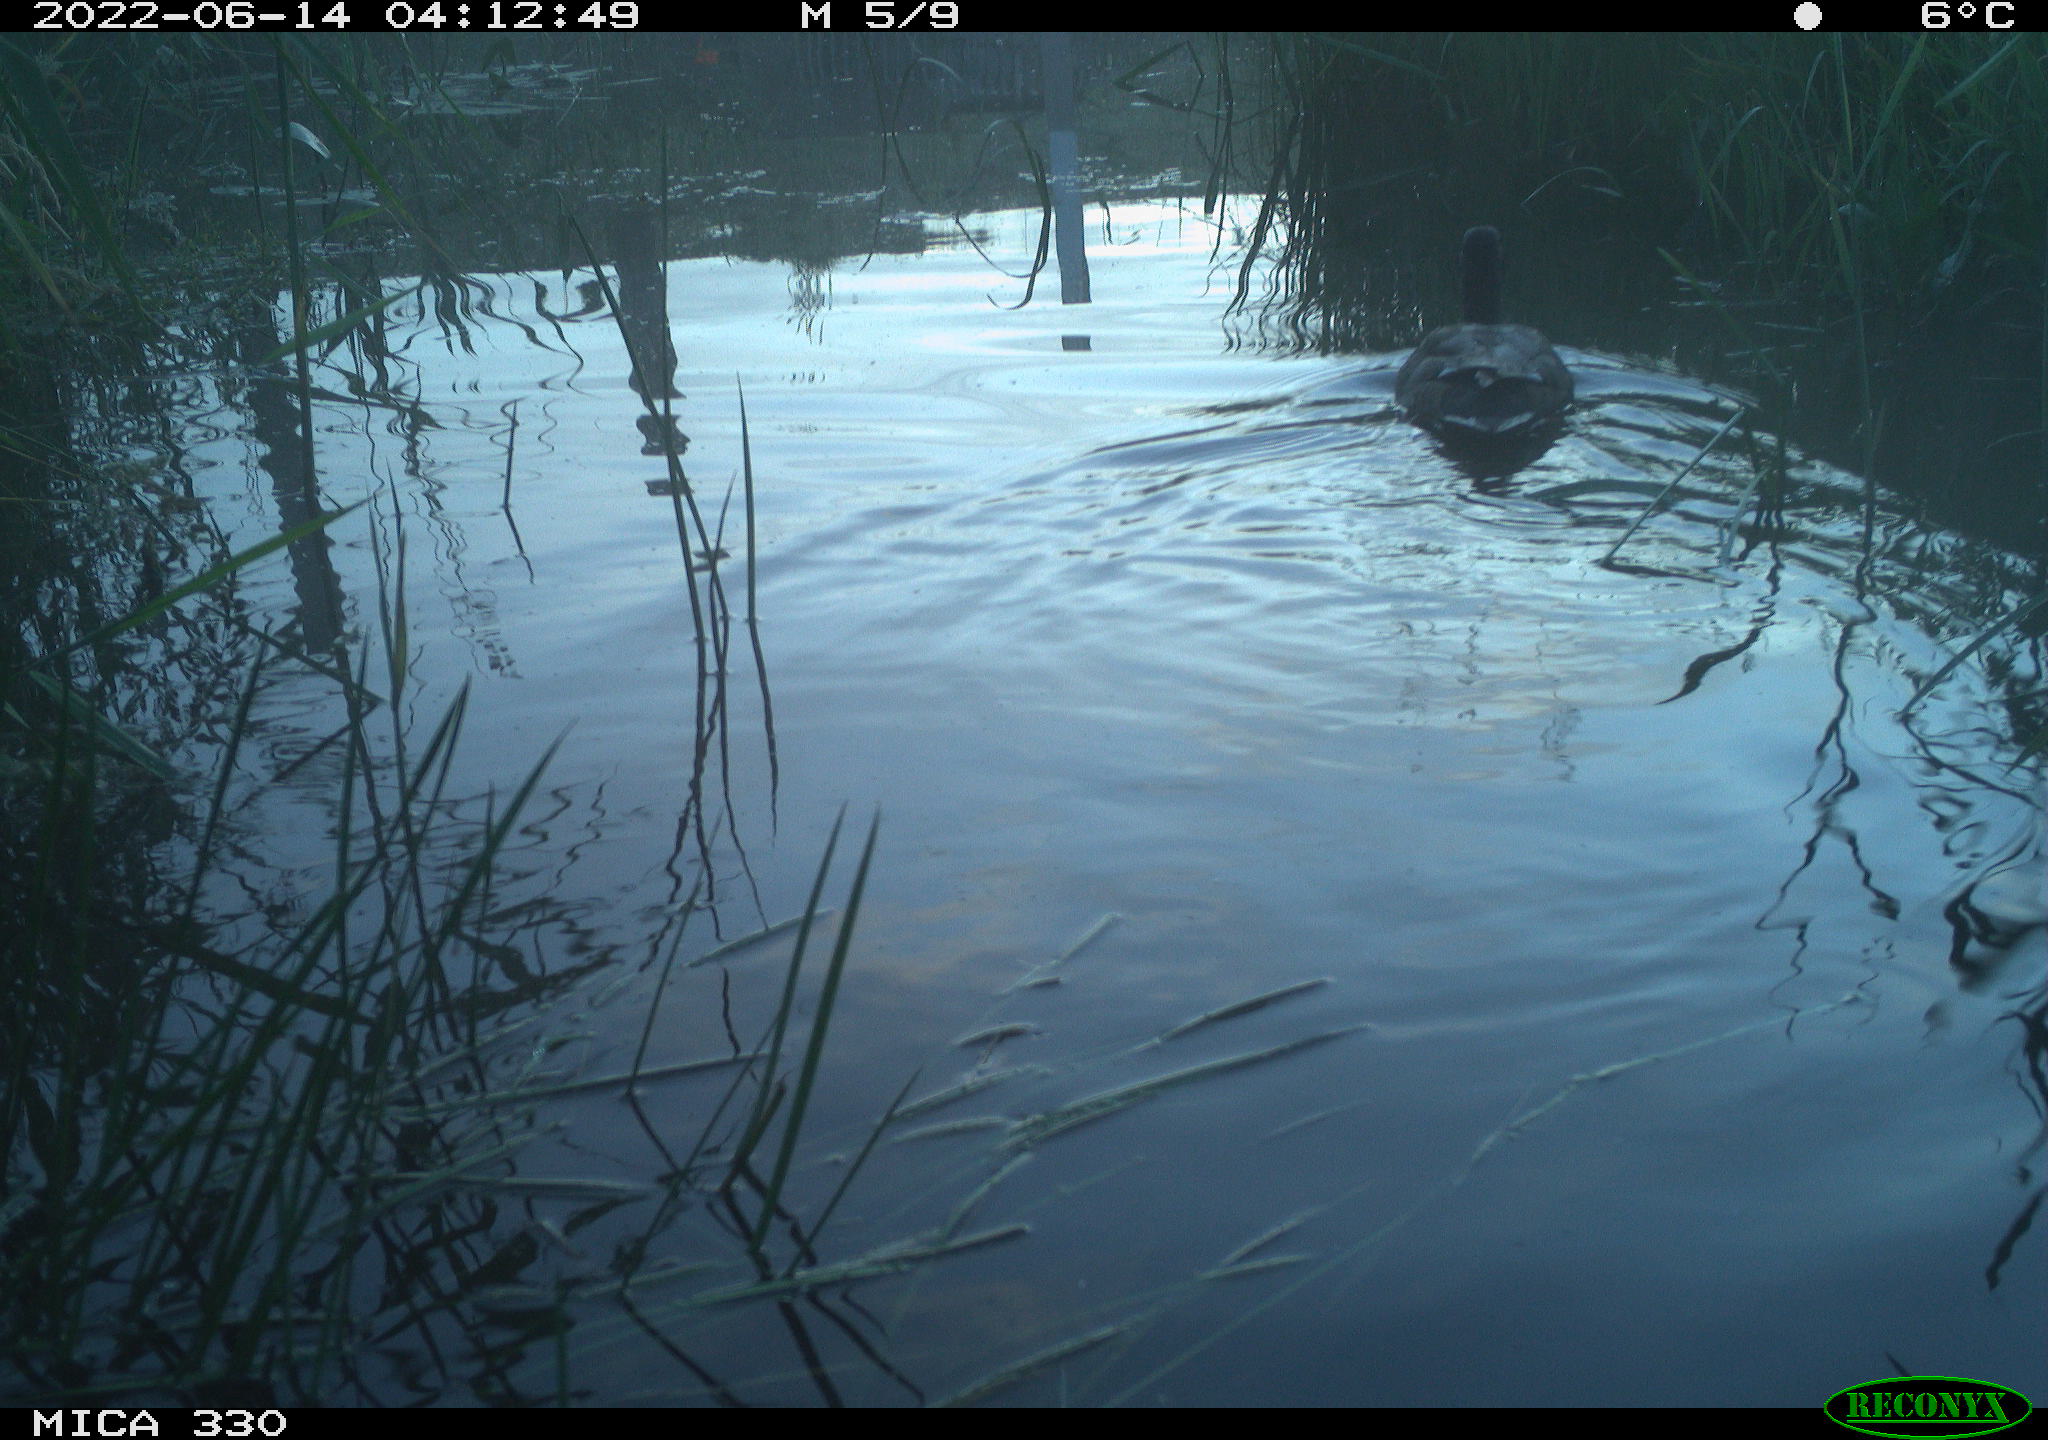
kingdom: Animalia
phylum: Chordata
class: Aves
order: Gruiformes
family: Rallidae
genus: Gallinula
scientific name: Gallinula chloropus
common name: Common moorhen
